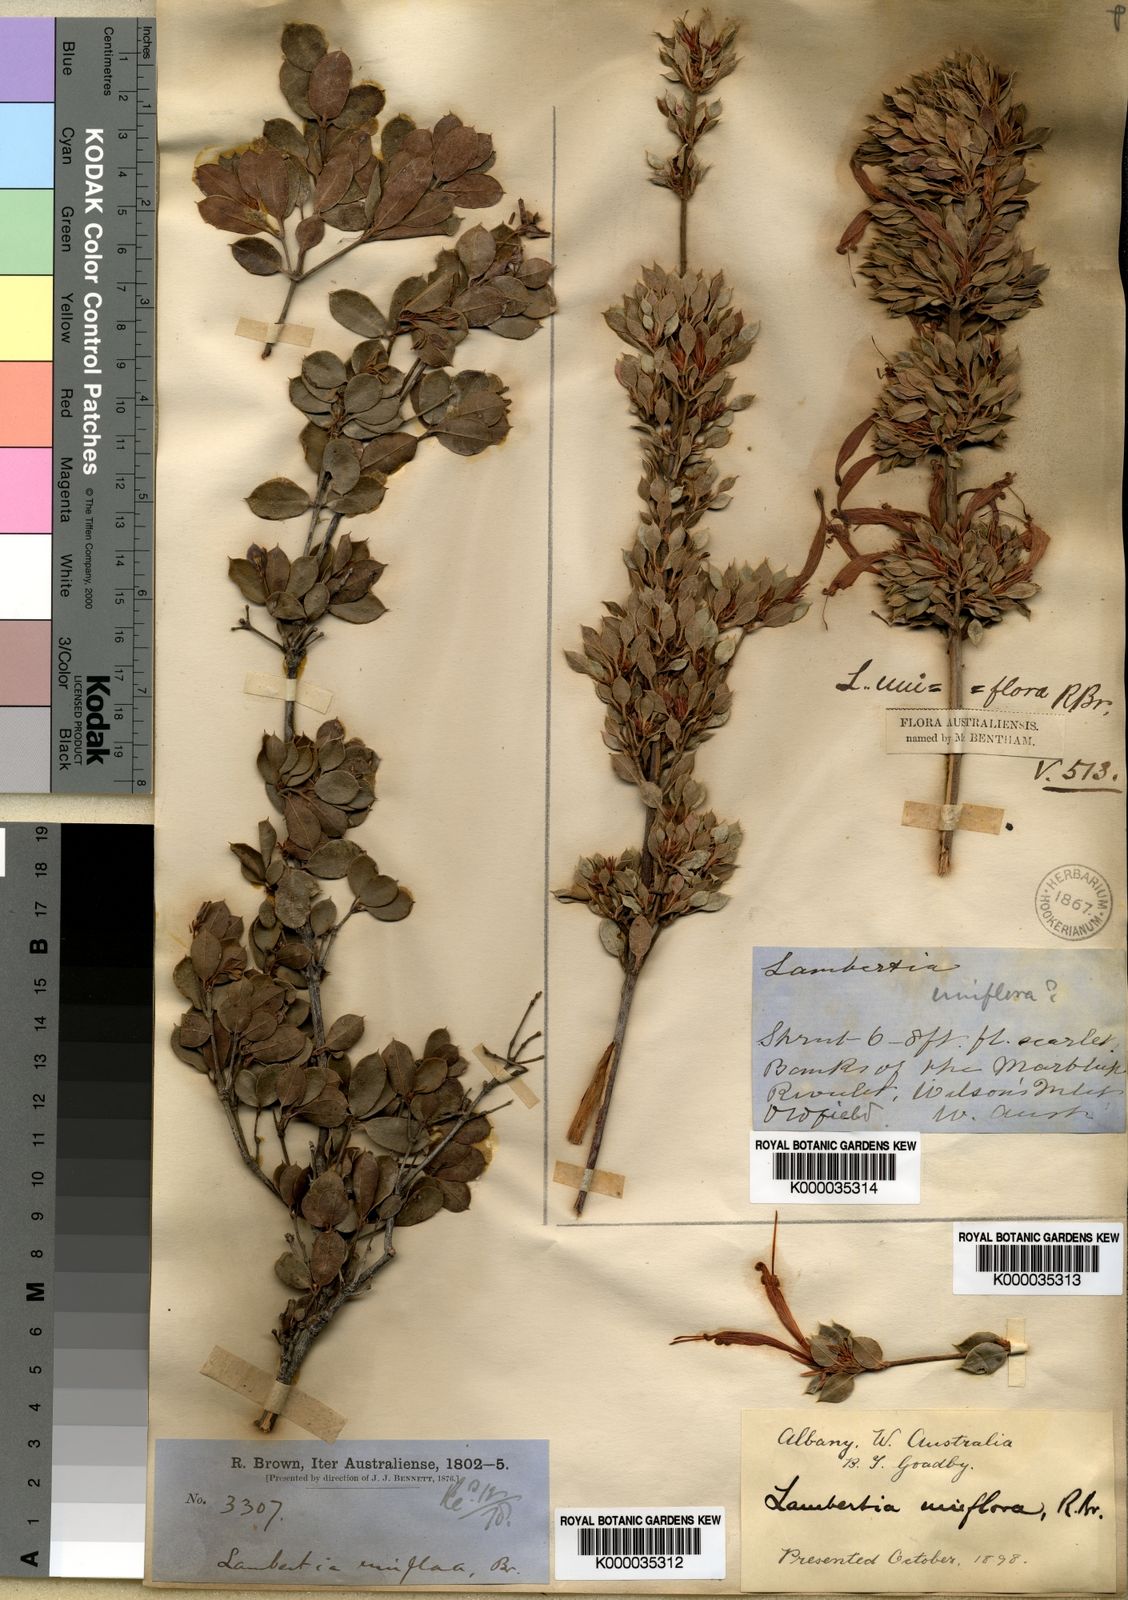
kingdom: Plantae
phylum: Tracheophyta
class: Magnoliopsida
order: Proteales
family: Proteaceae
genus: Lambertia
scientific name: Lambertia uniflora
